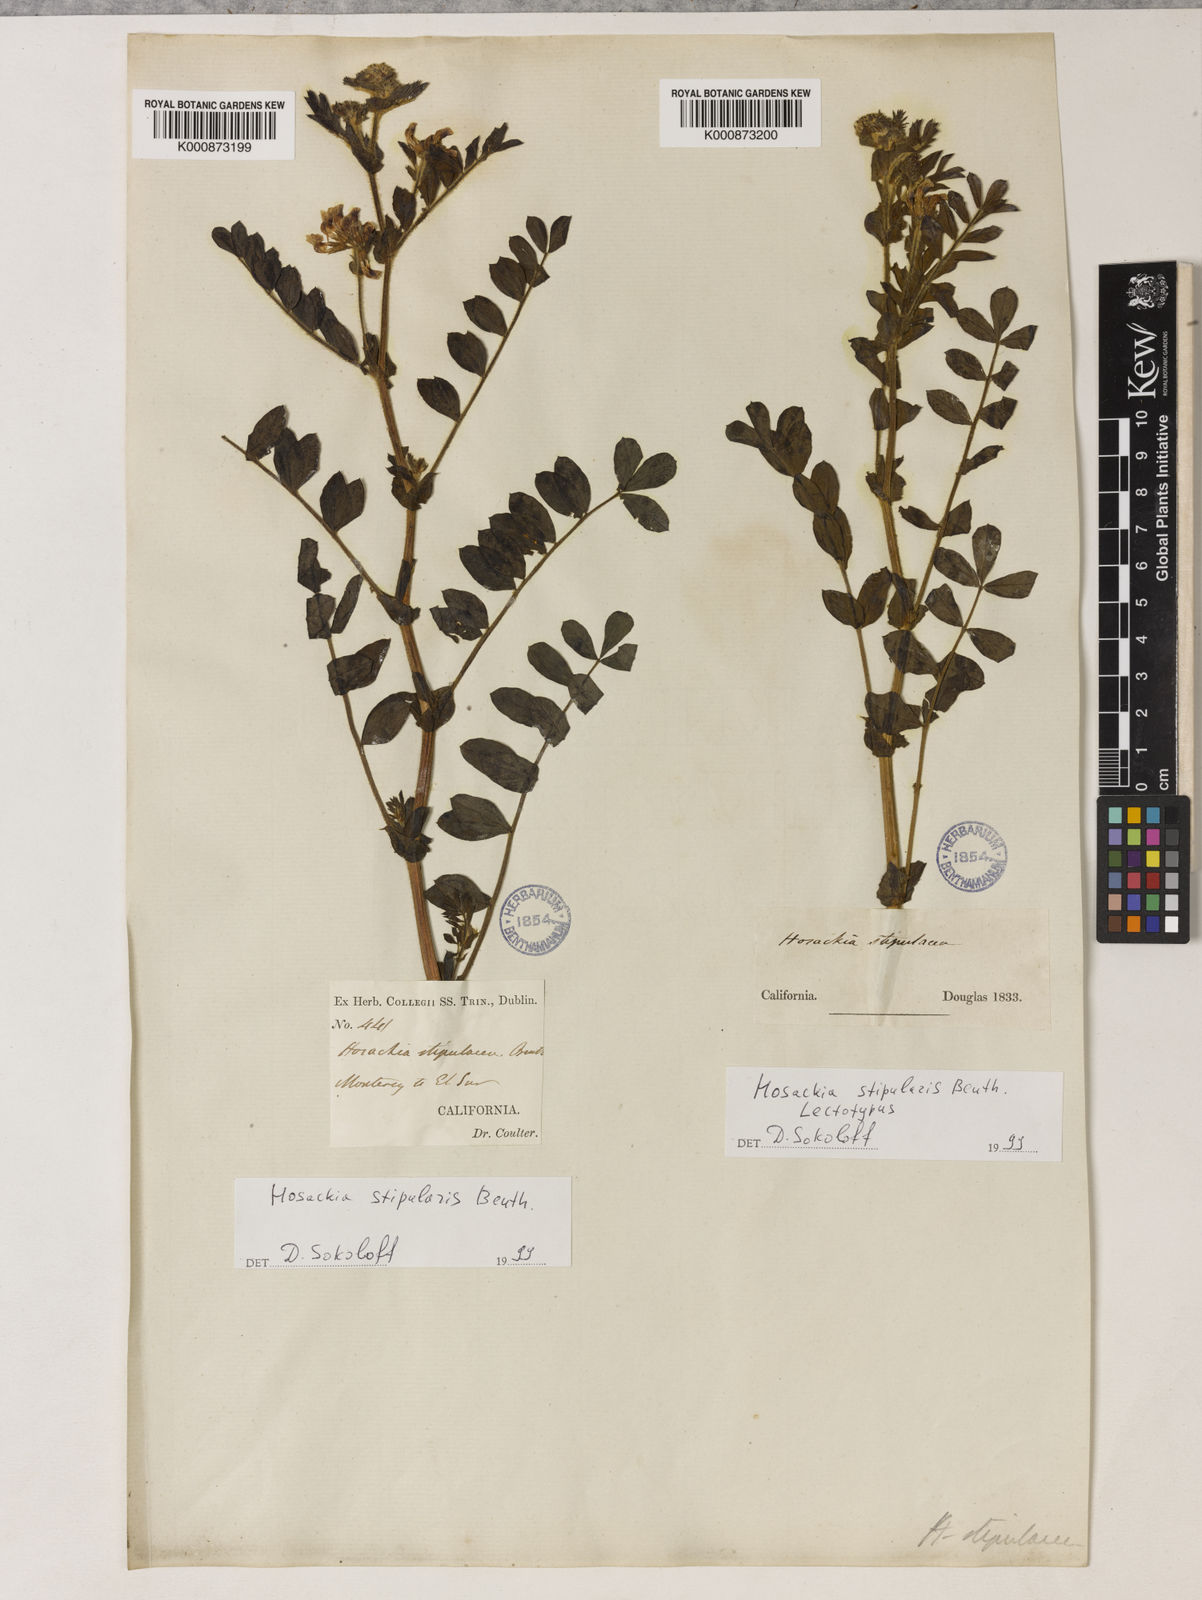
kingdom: Plantae
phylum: Tracheophyta
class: Magnoliopsida
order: Fabales
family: Fabaceae
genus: Hosackia
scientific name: Hosackia stipularis
